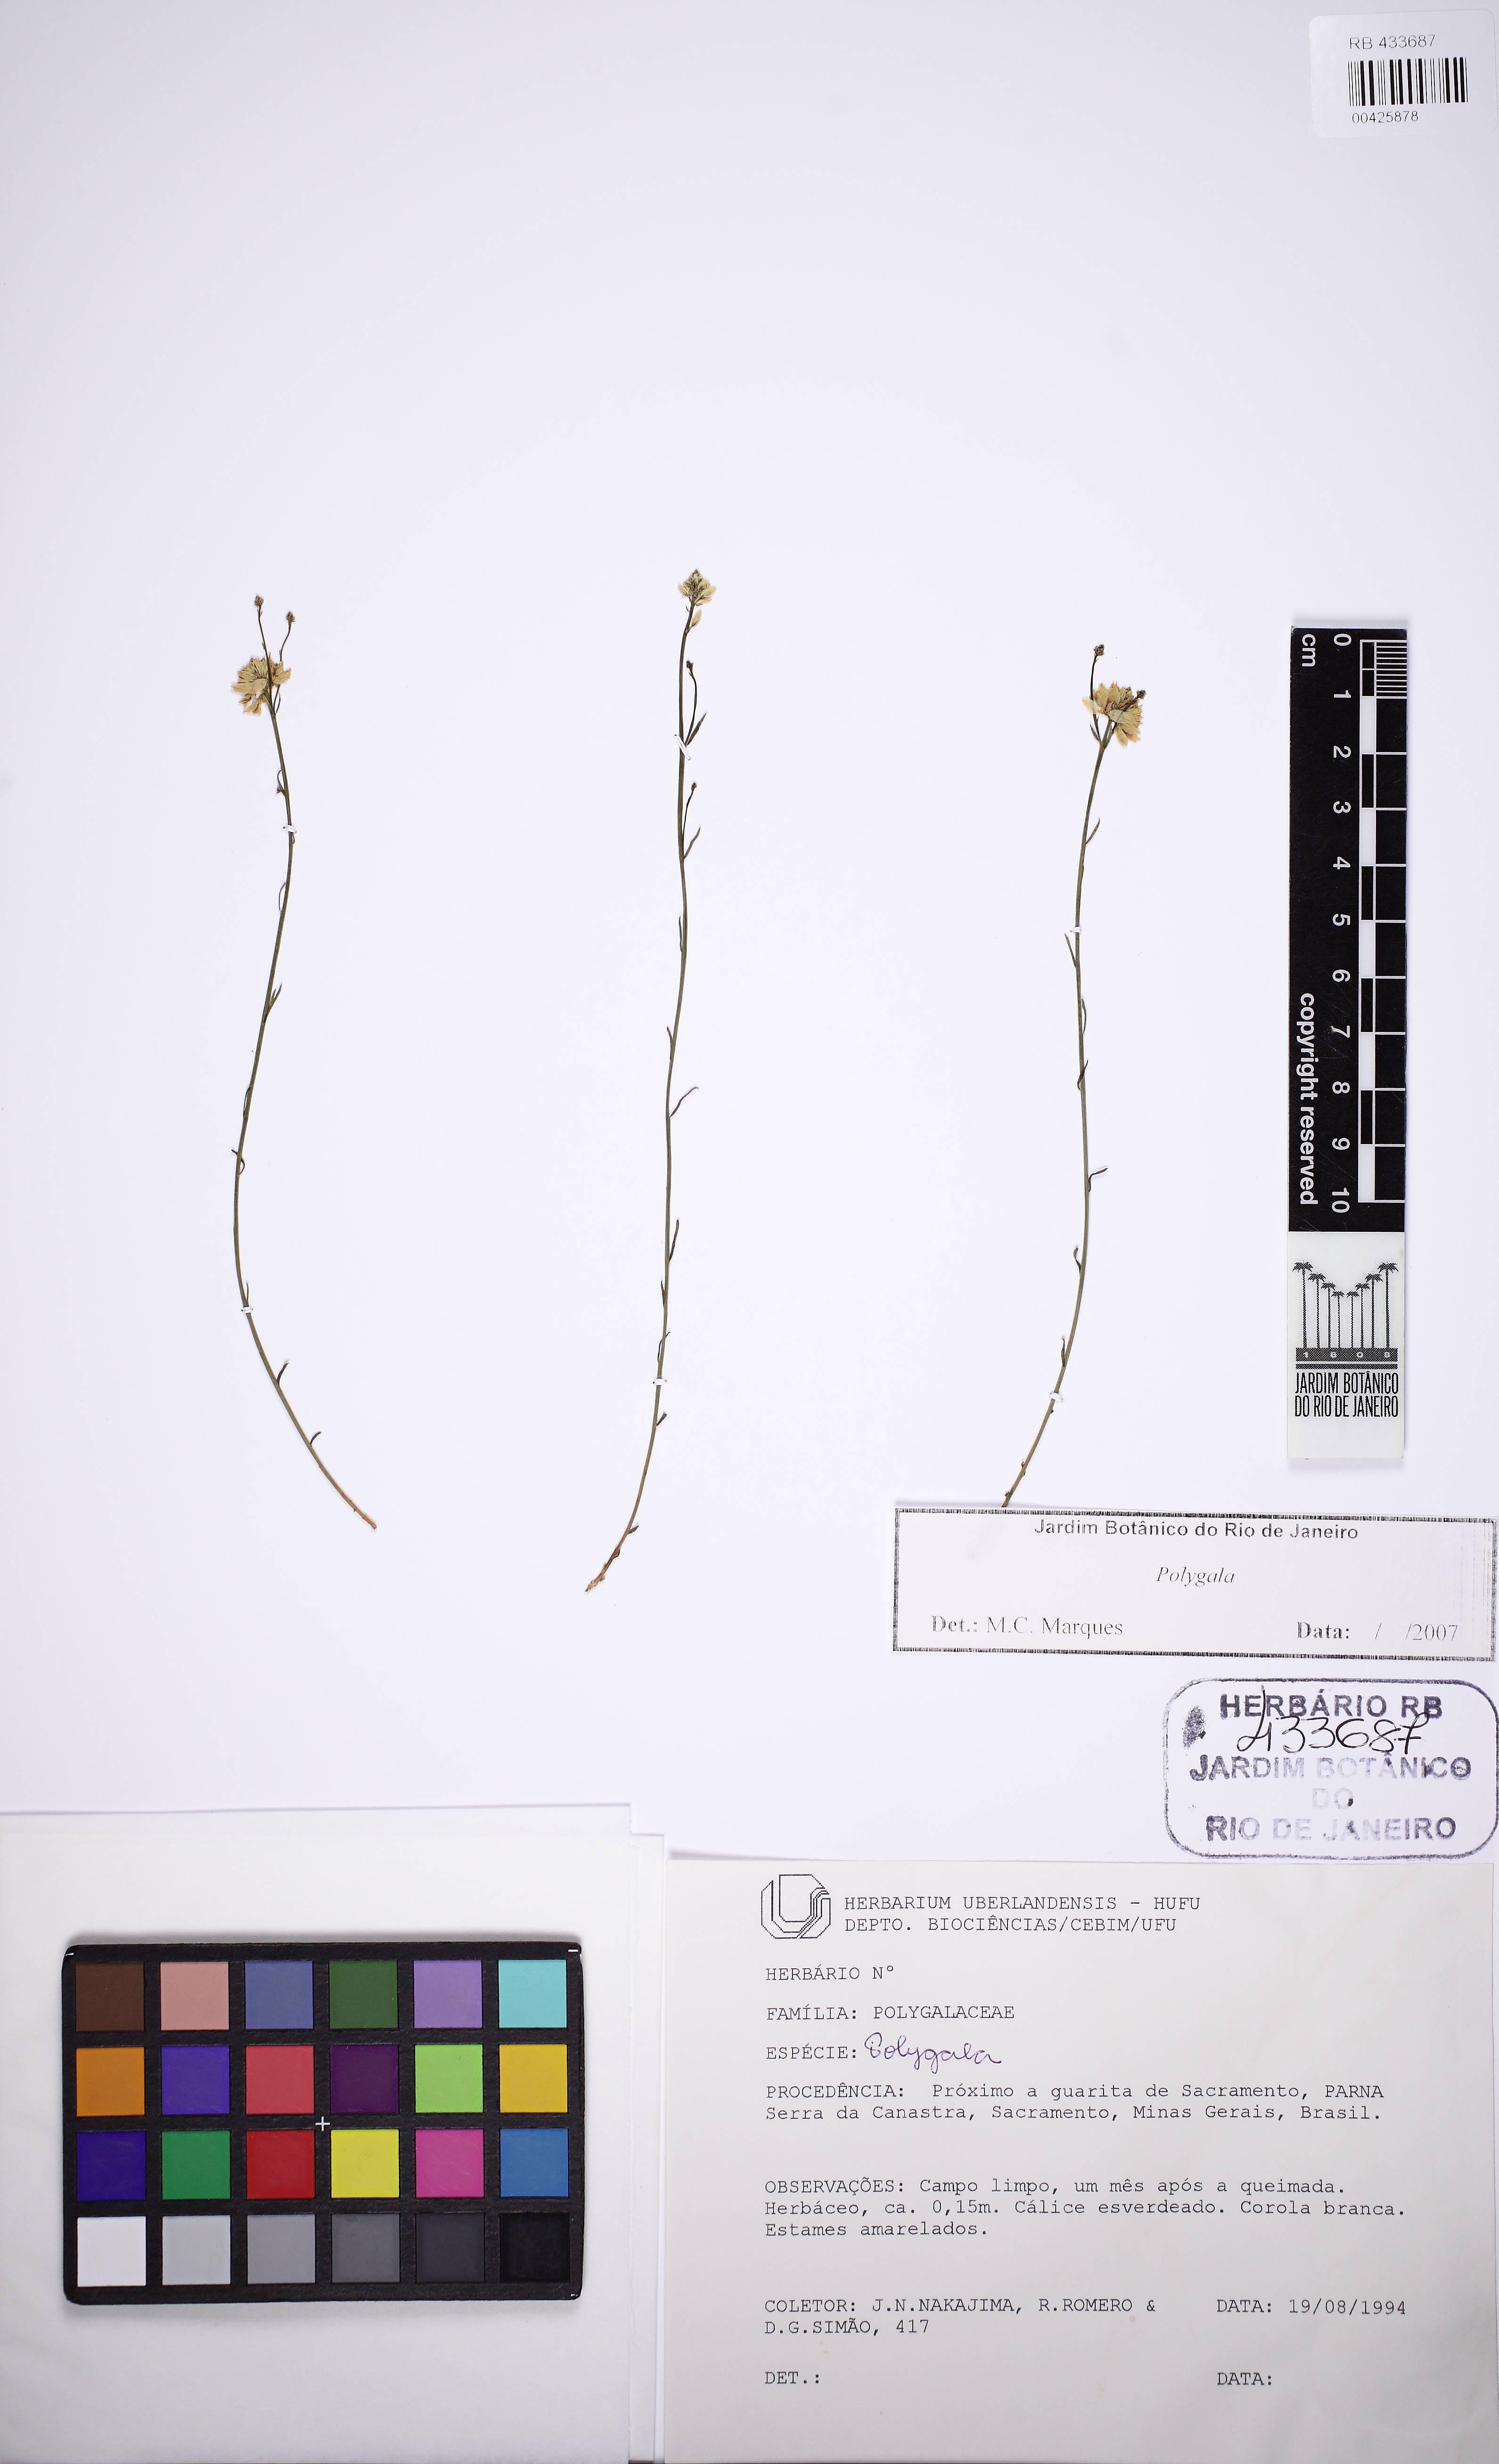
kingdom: Plantae
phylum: Tracheophyta
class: Magnoliopsida
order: Fabales
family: Polygalaceae
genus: Polygala
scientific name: Polygala juncea
